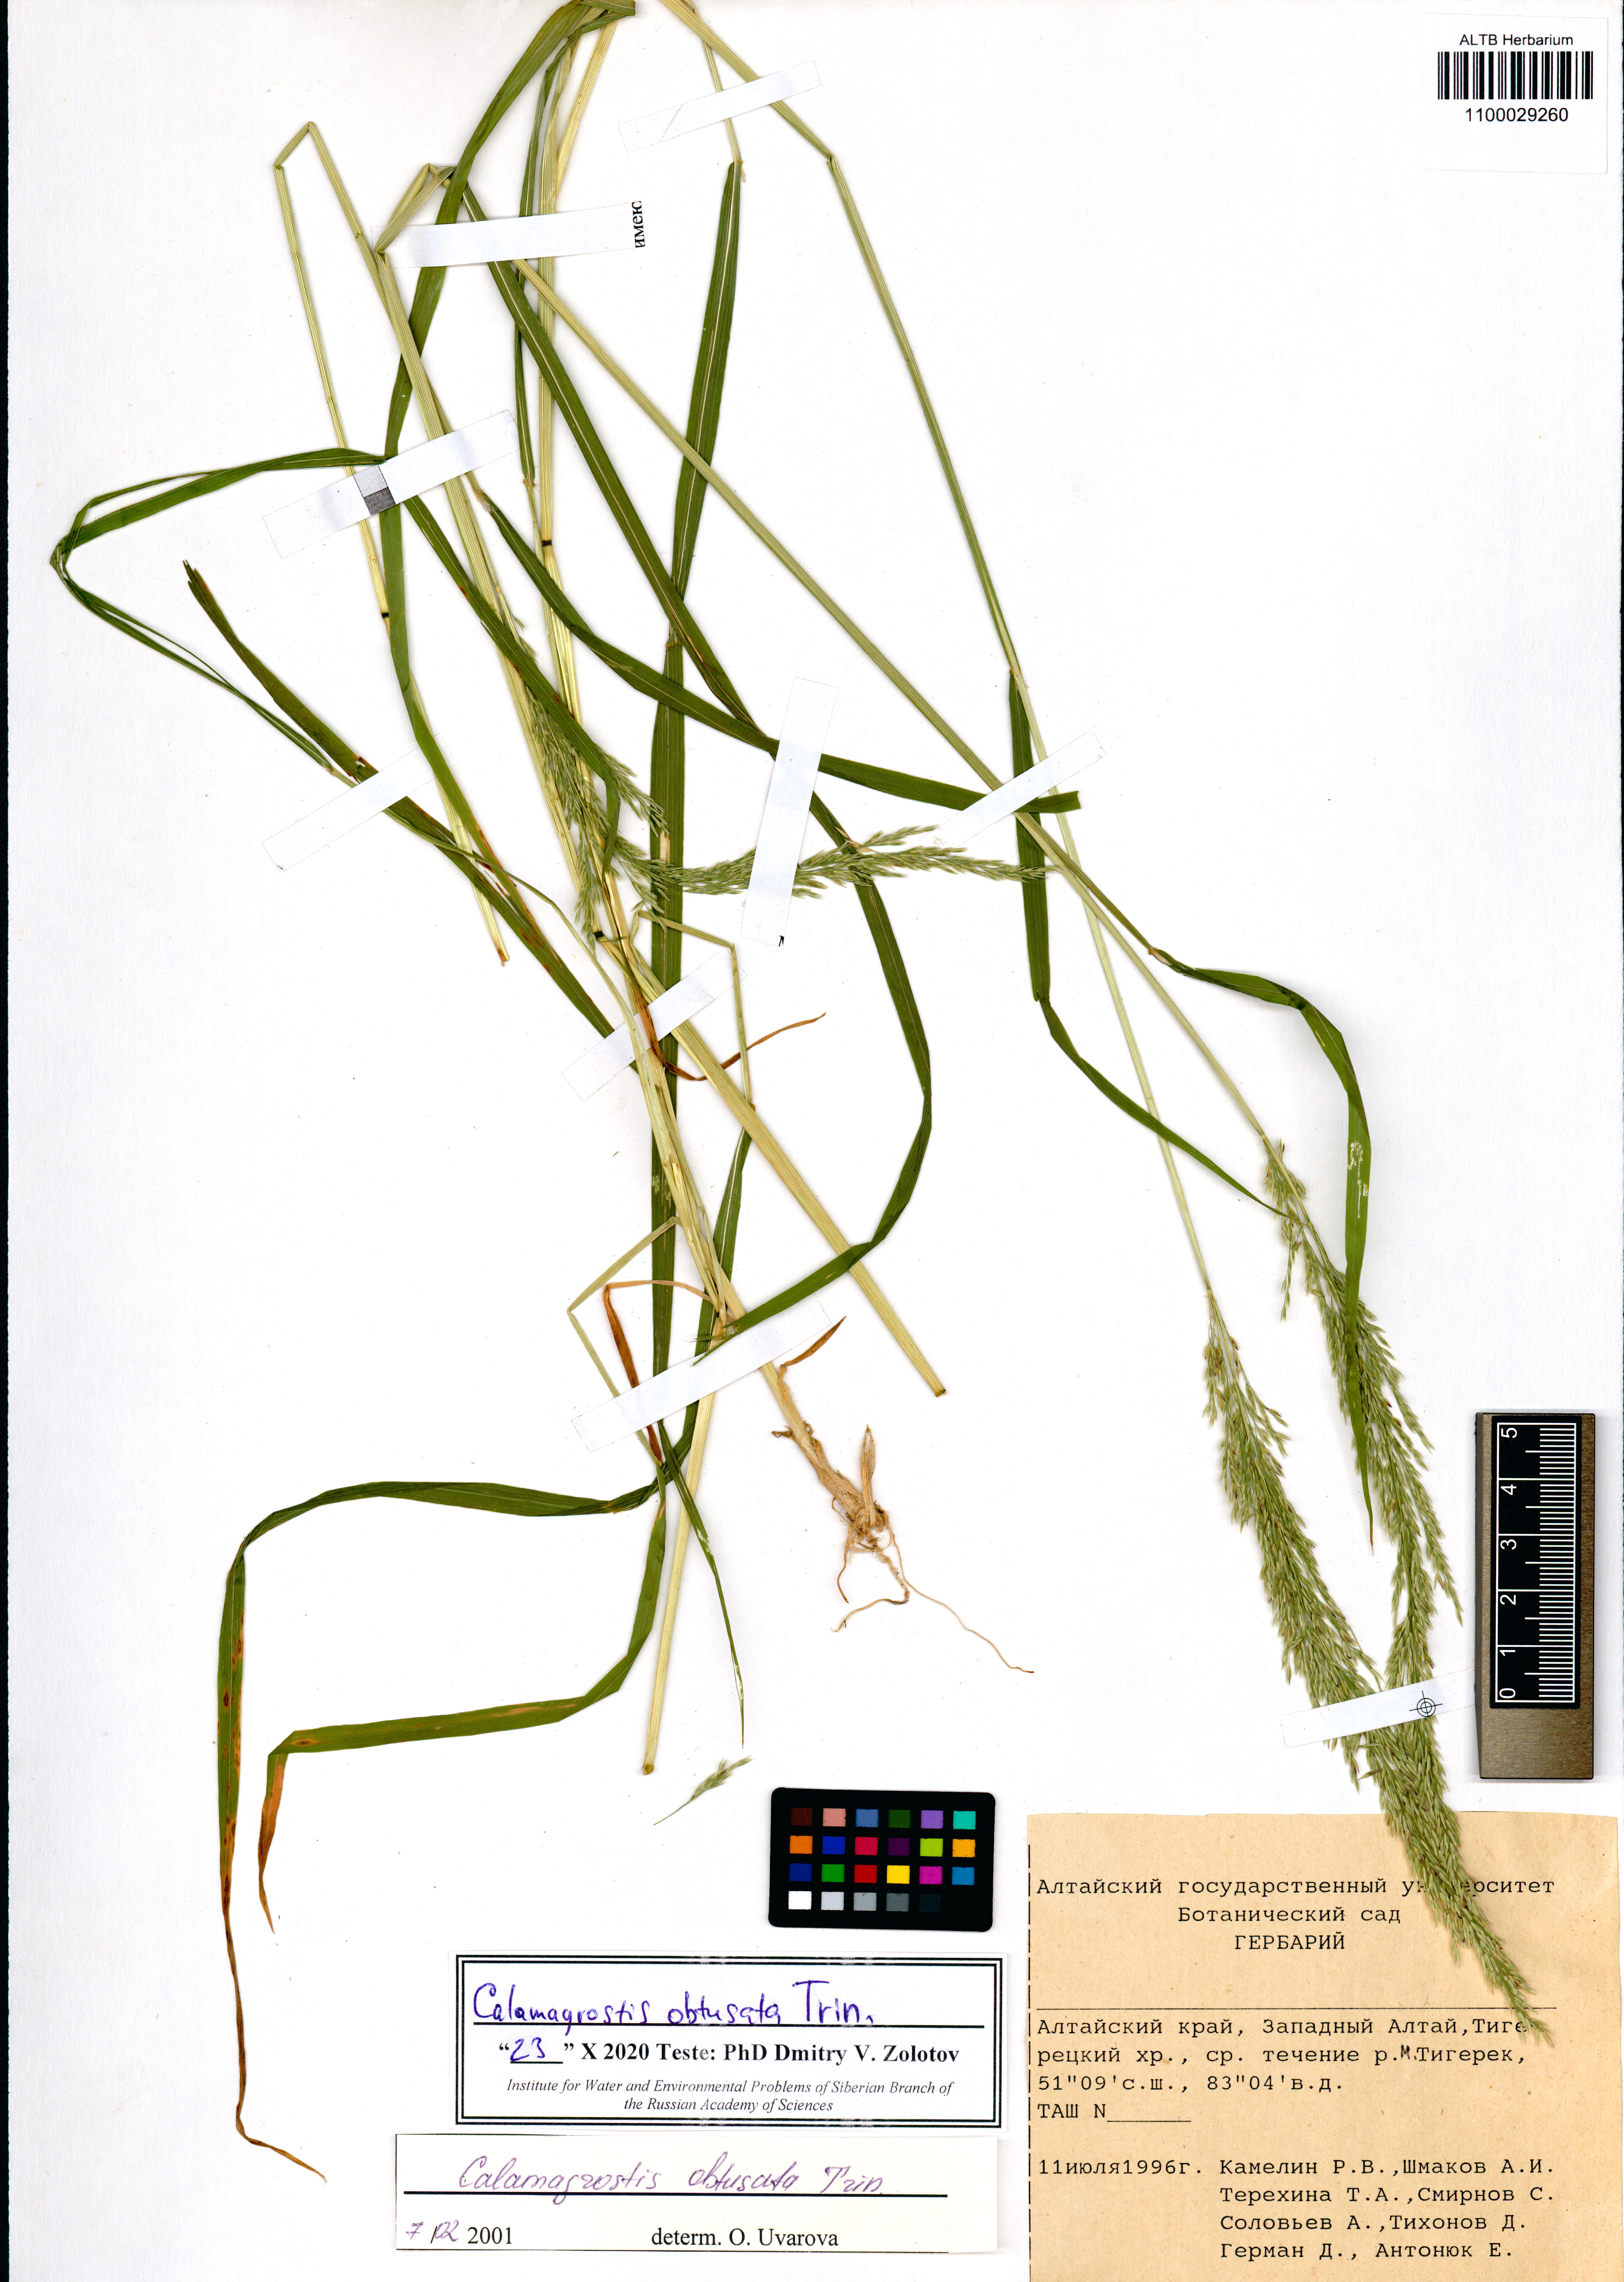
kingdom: Plantae
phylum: Tracheophyta
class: Liliopsida
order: Poales
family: Poaceae
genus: Calamagrostis
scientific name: Calamagrostis obtusata
